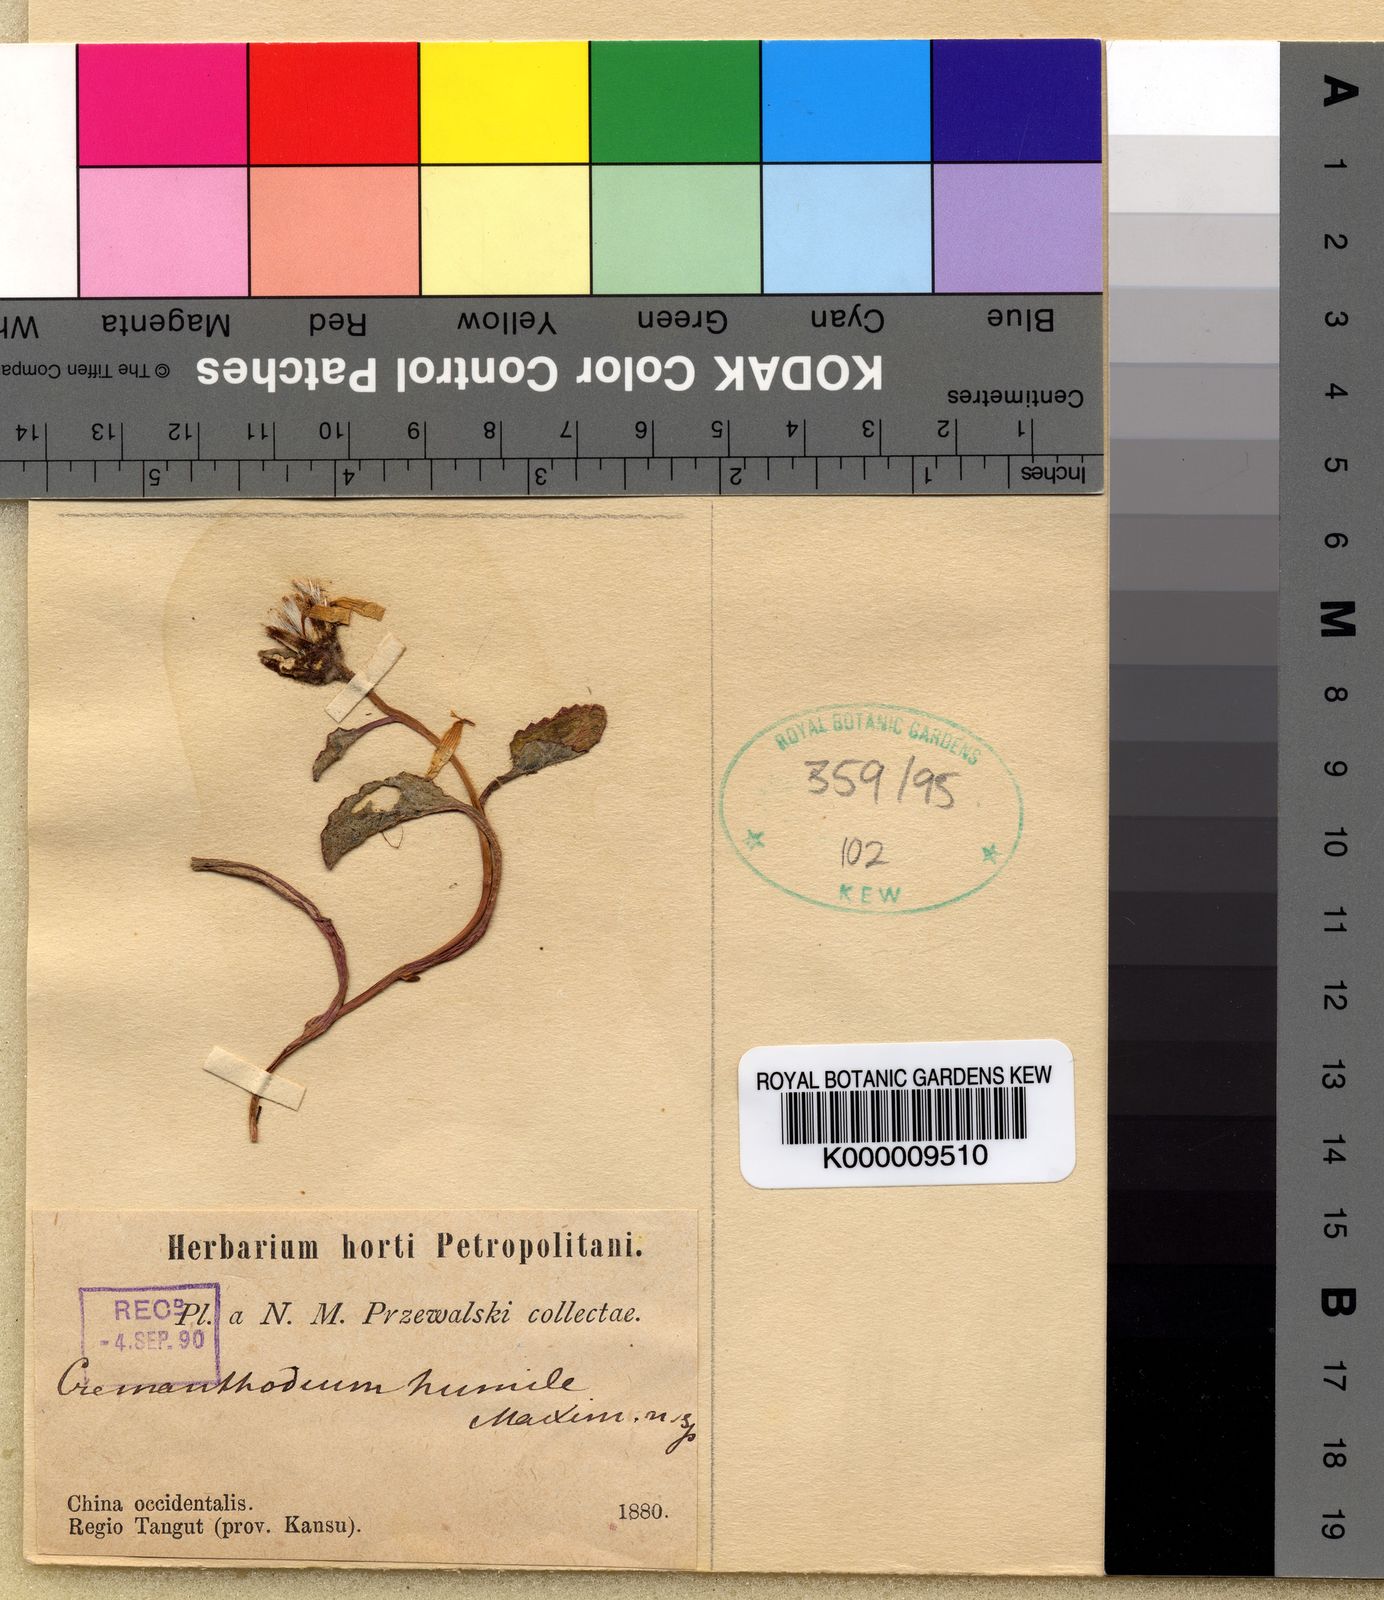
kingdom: Plantae
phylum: Tracheophyta
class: Magnoliopsida
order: Asterales
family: Asteraceae
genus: Cremanthodium
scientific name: Cremanthodium humile
